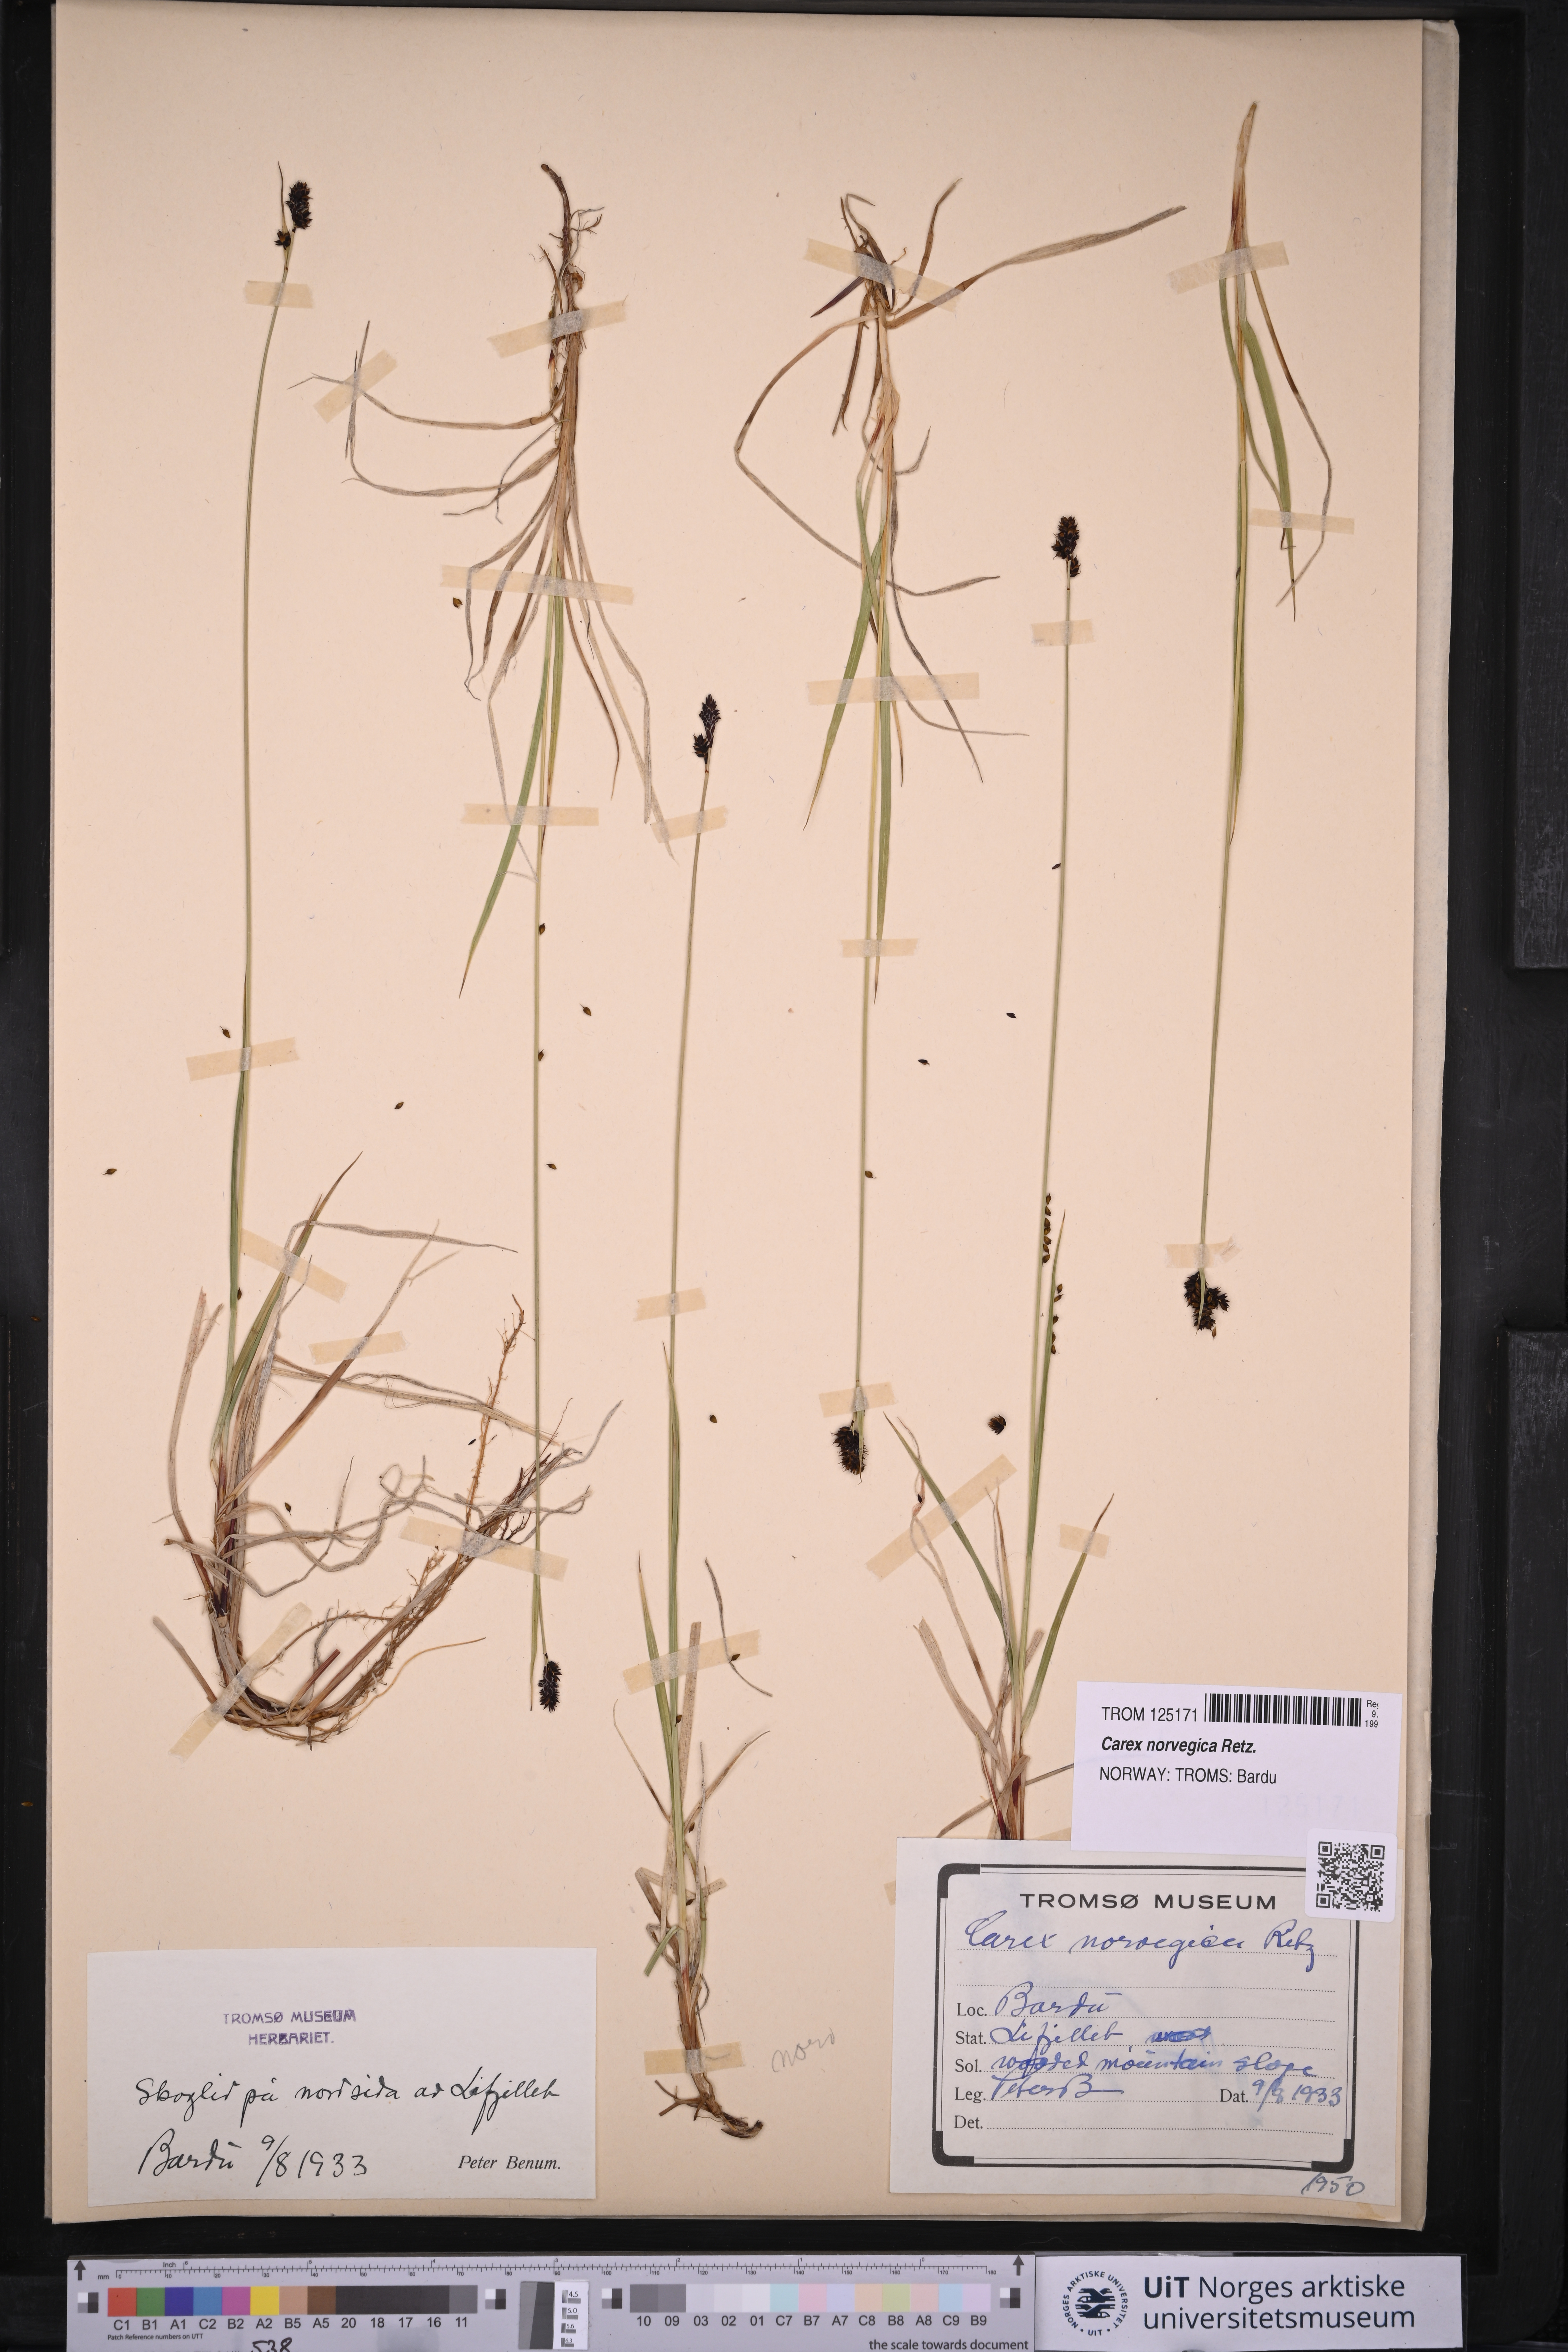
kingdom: Plantae
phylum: Tracheophyta
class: Liliopsida
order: Poales
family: Cyperaceae
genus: Carex
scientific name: Carex norvegica
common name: Close-headed alpine-sedge
